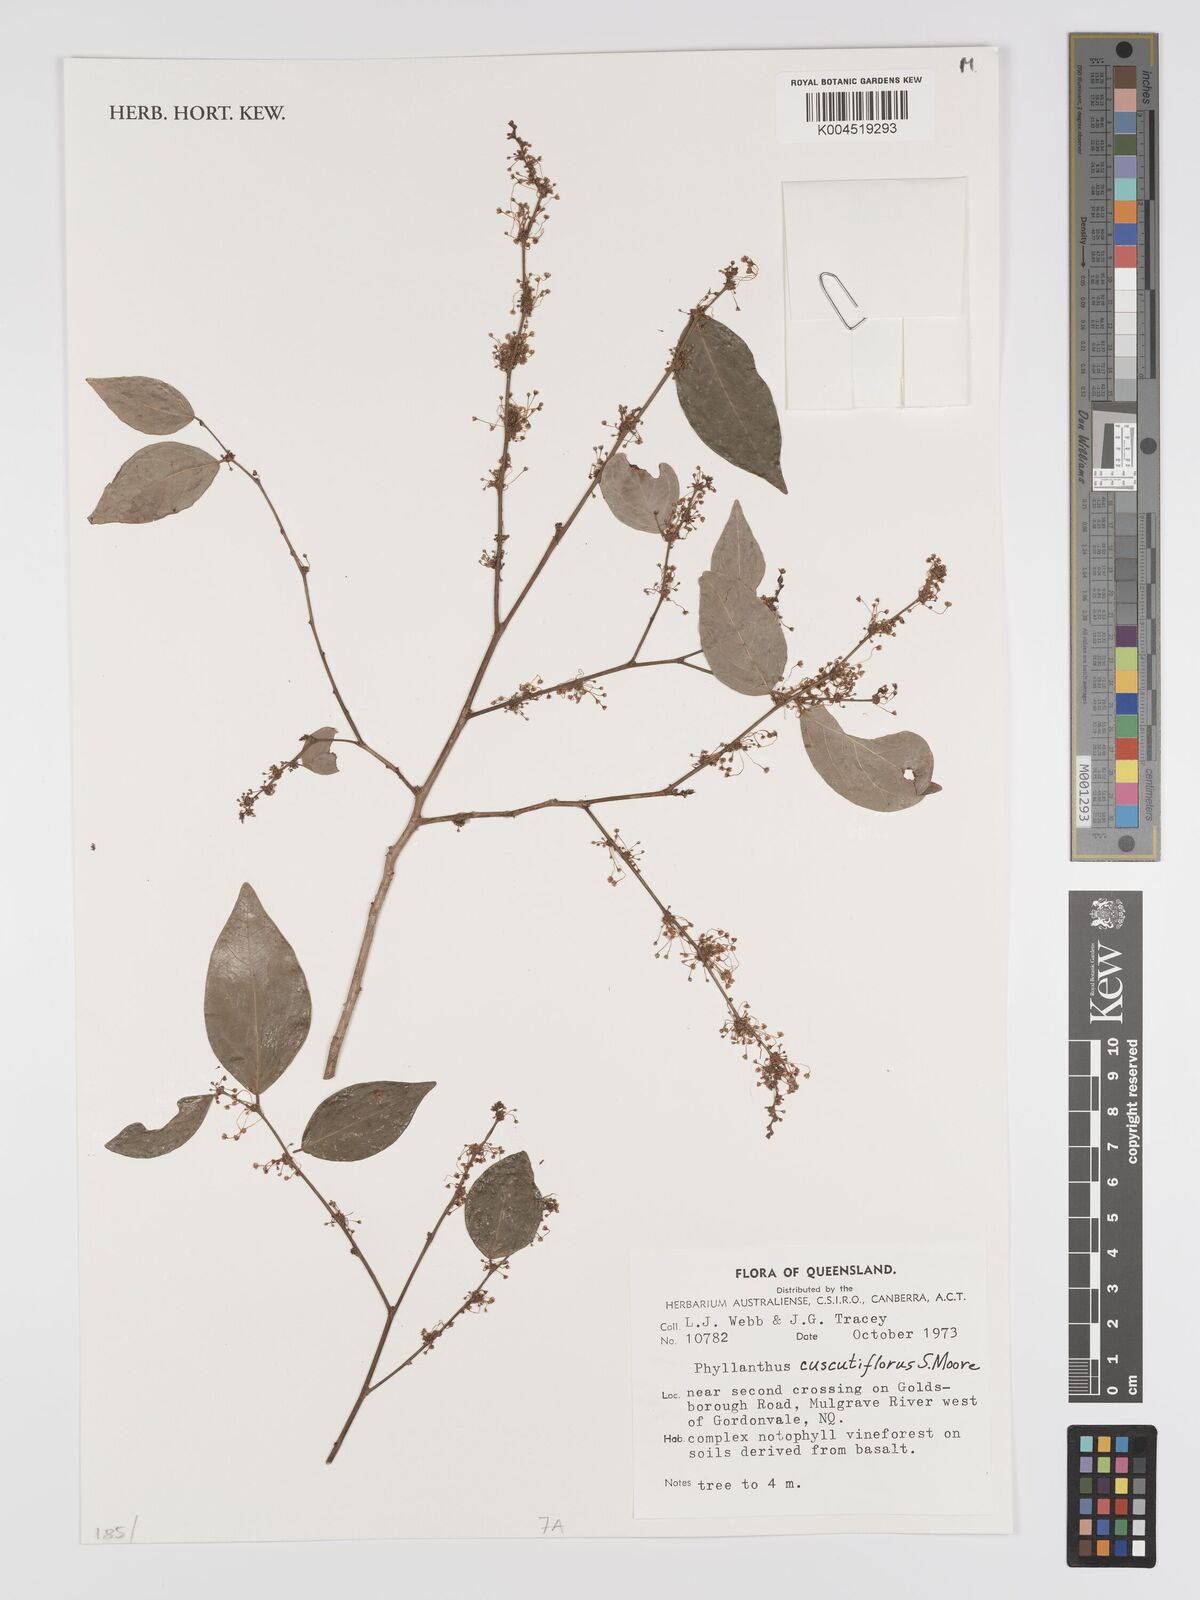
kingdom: Plantae
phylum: Tracheophyta
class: Magnoliopsida
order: Malpighiales
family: Phyllanthaceae
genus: Phyllanthus
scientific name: Phyllanthus cuscutiflorus
